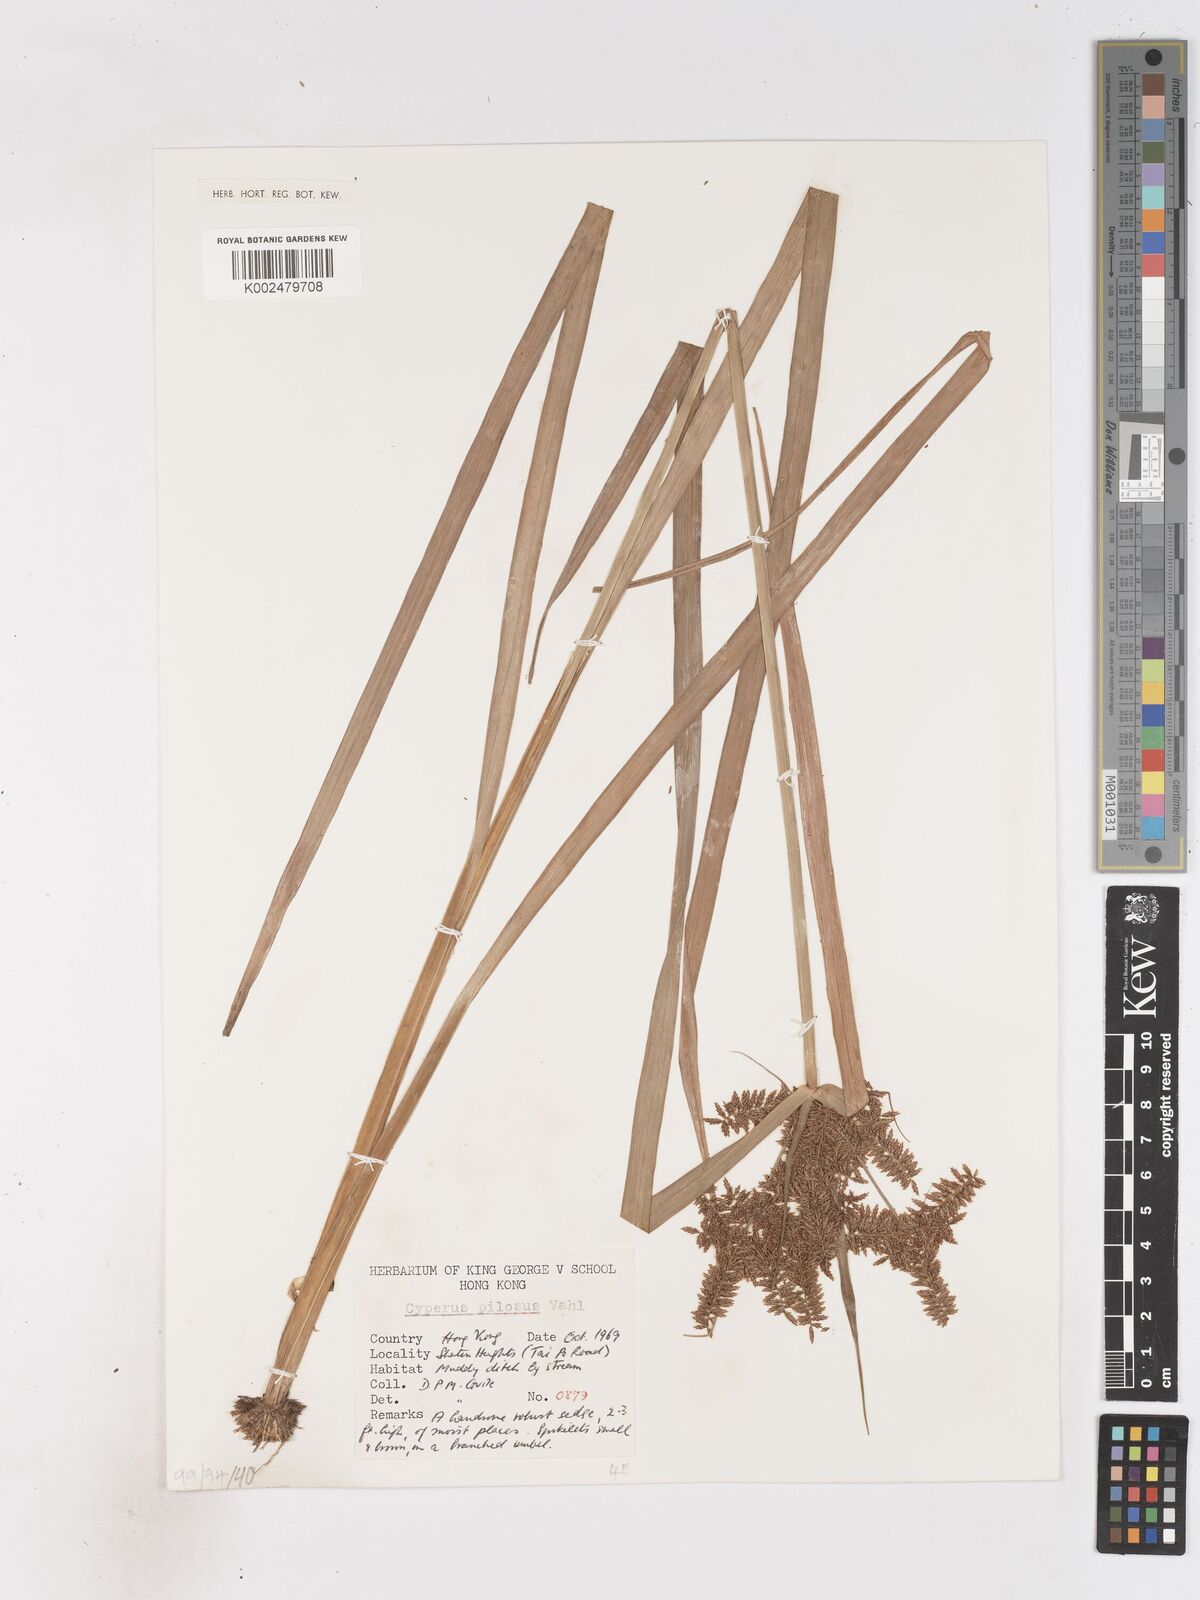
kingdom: Plantae
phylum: Tracheophyta
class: Liliopsida
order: Poales
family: Cyperaceae
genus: Cyperus
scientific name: Cyperus pilosus
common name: Fuzzy flatsedge
